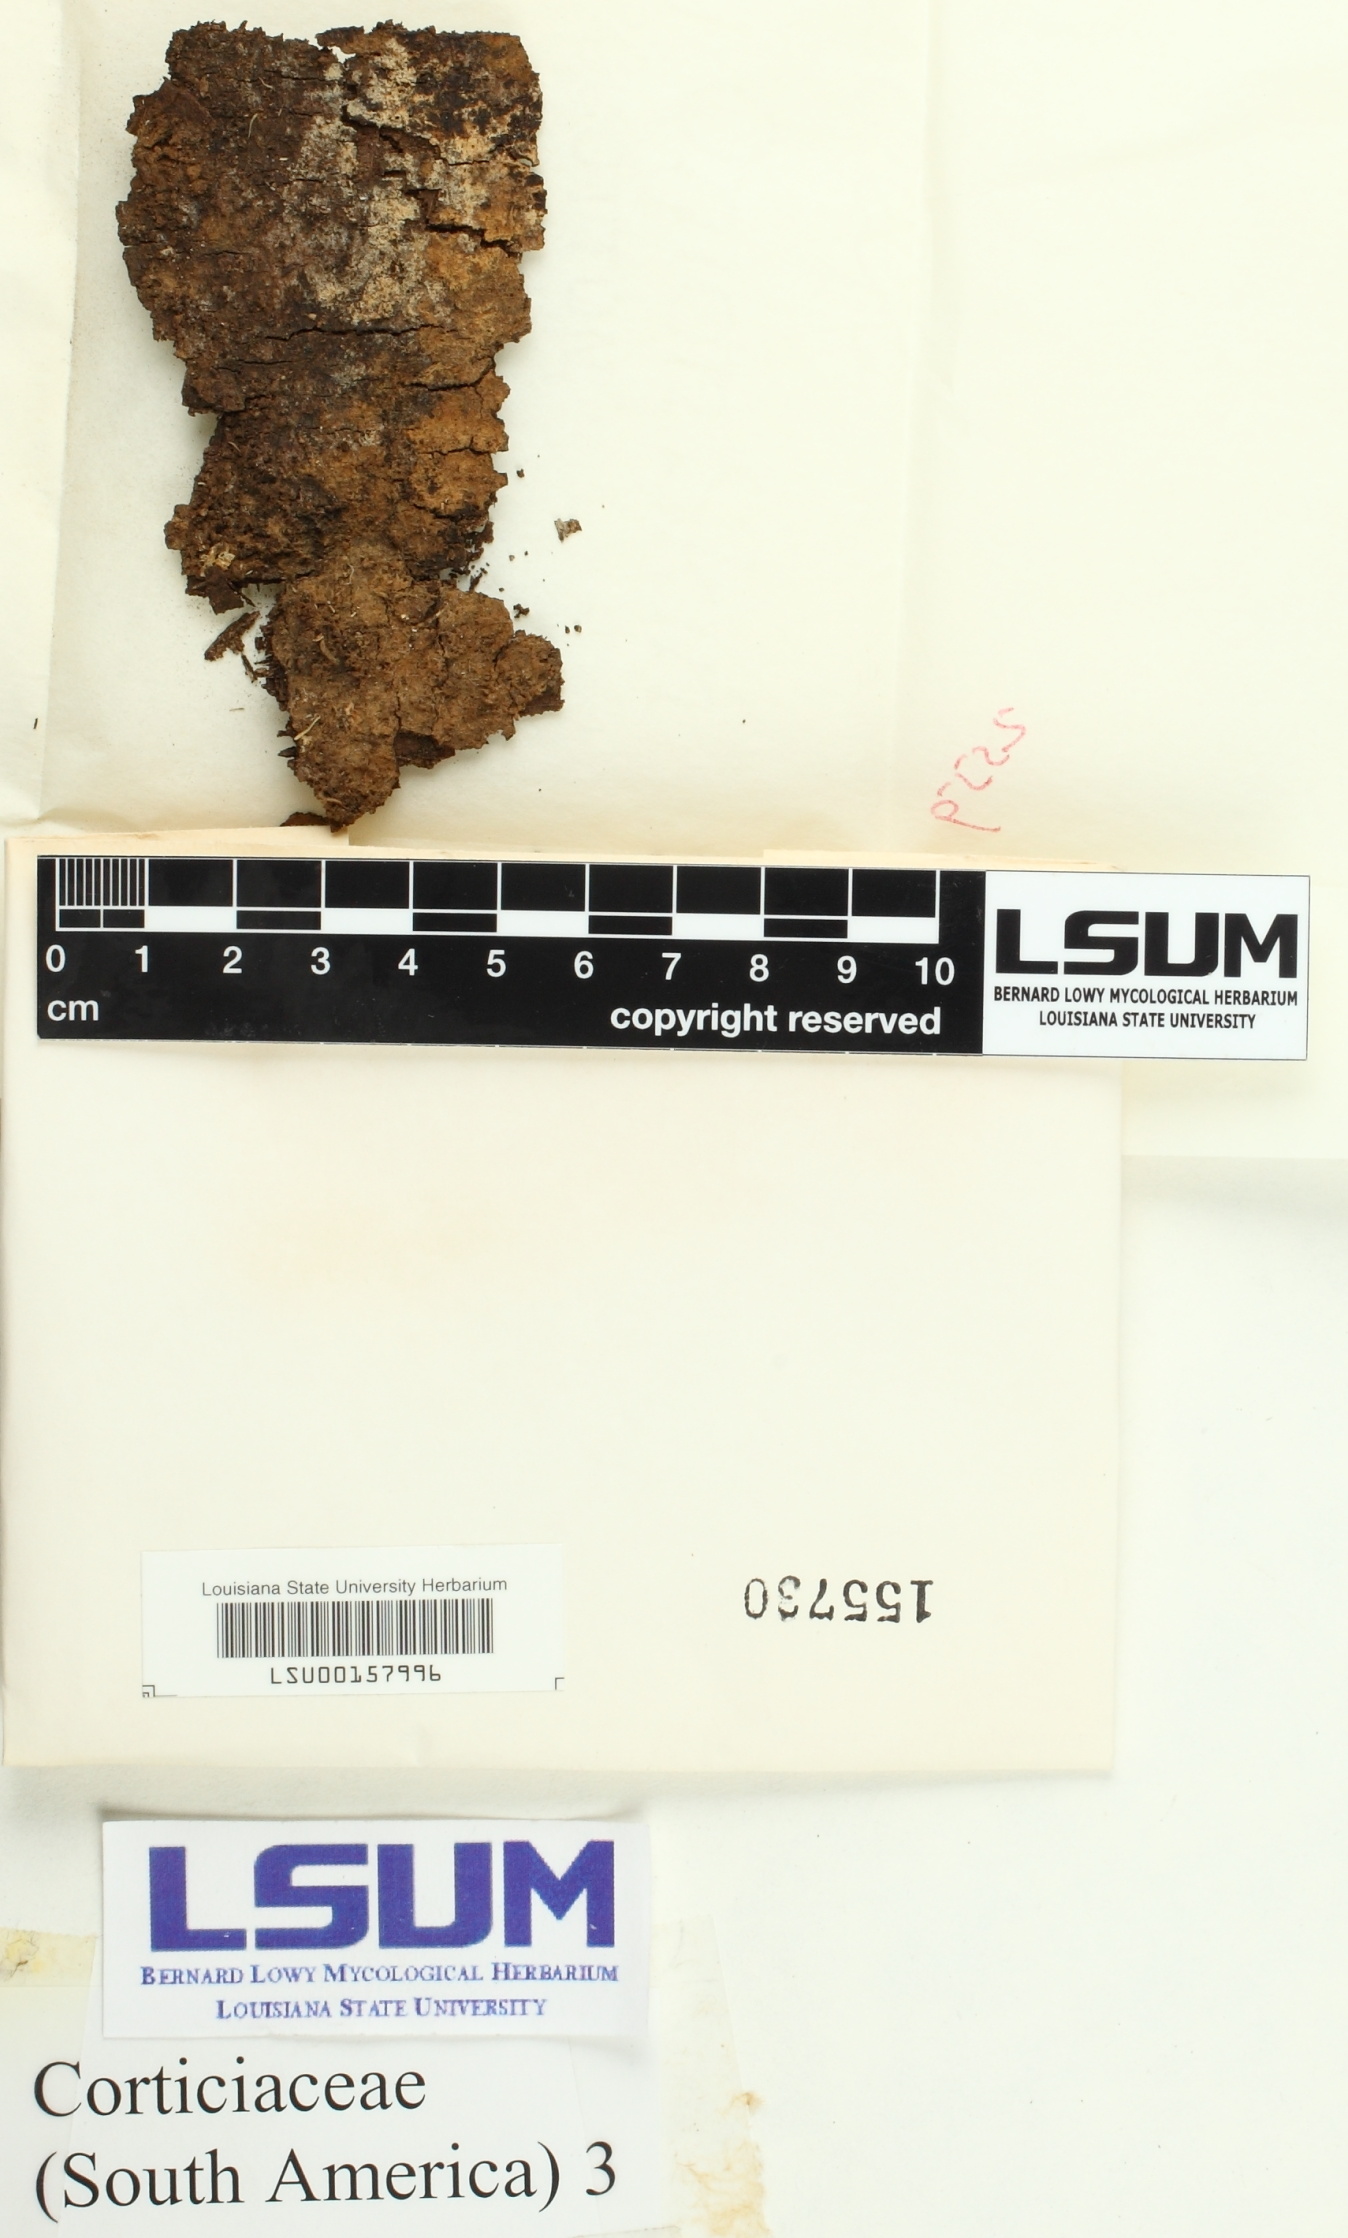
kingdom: Fungi
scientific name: Fungi
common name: Fungi
